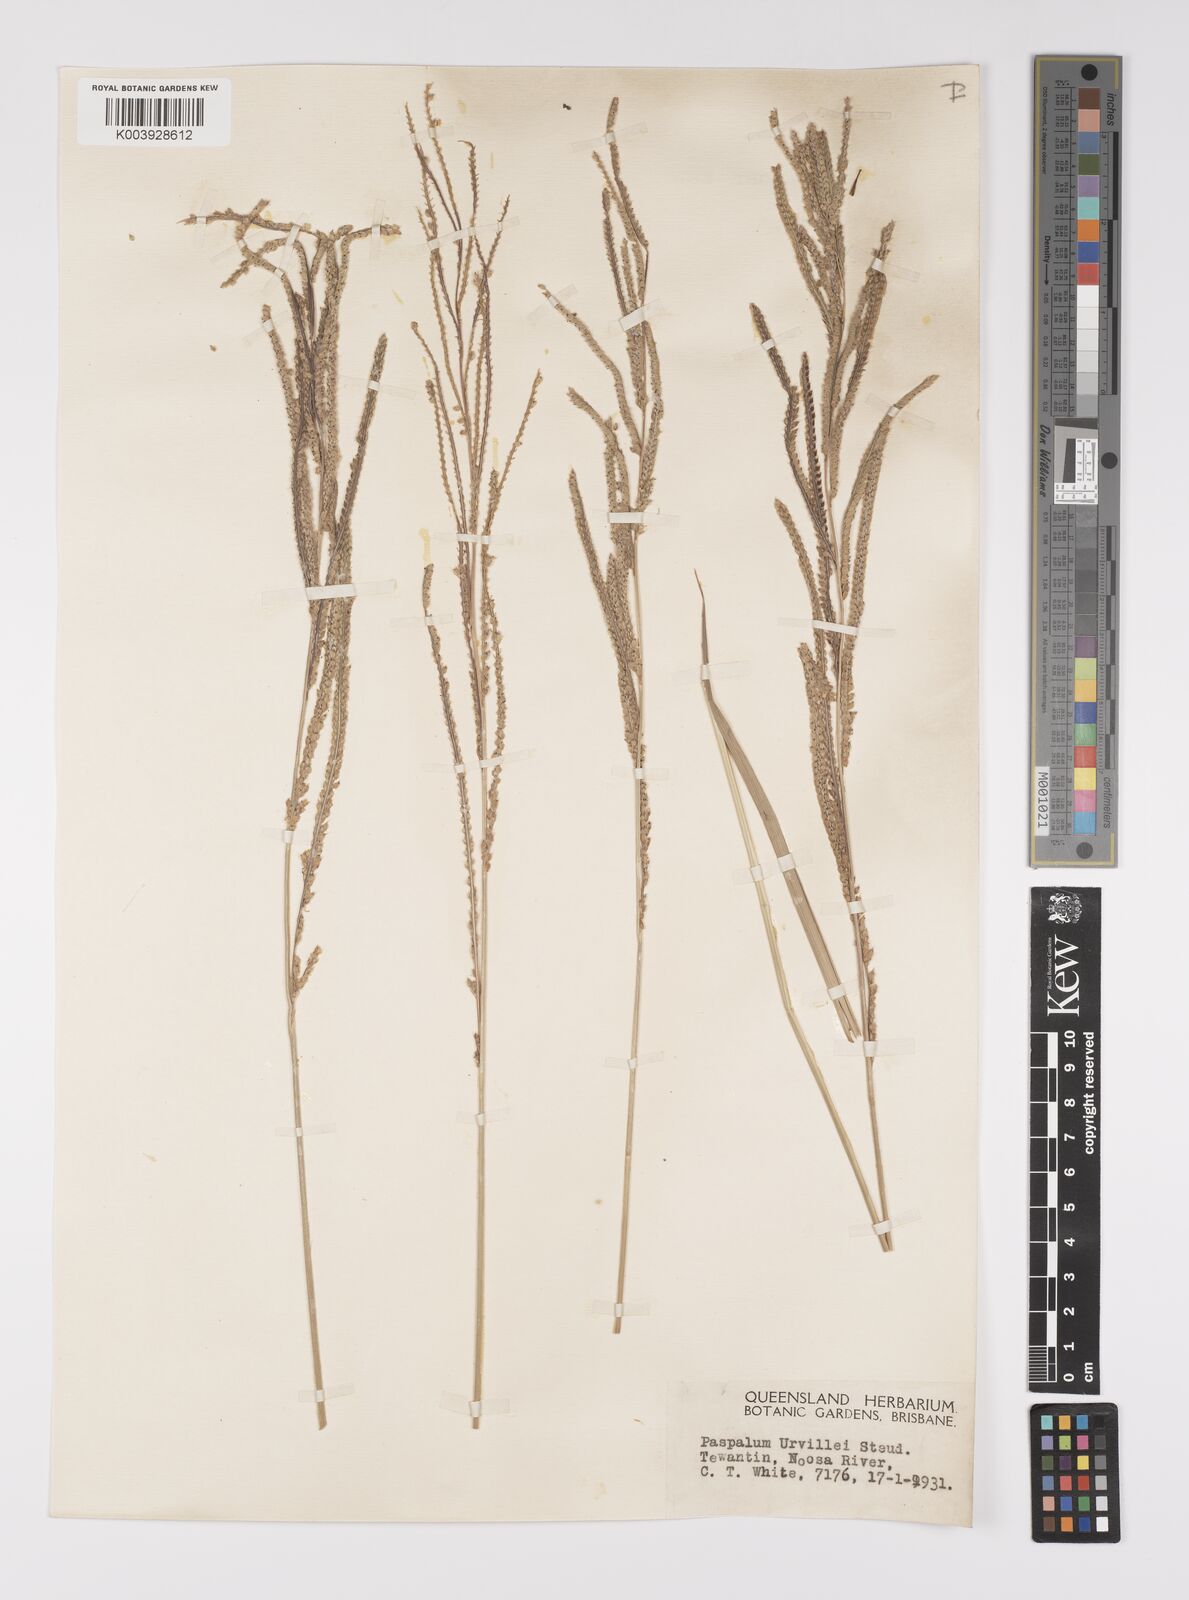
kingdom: Plantae
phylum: Tracheophyta
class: Liliopsida
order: Poales
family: Poaceae
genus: Paspalum
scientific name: Paspalum urvillei
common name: Vasey's grass
